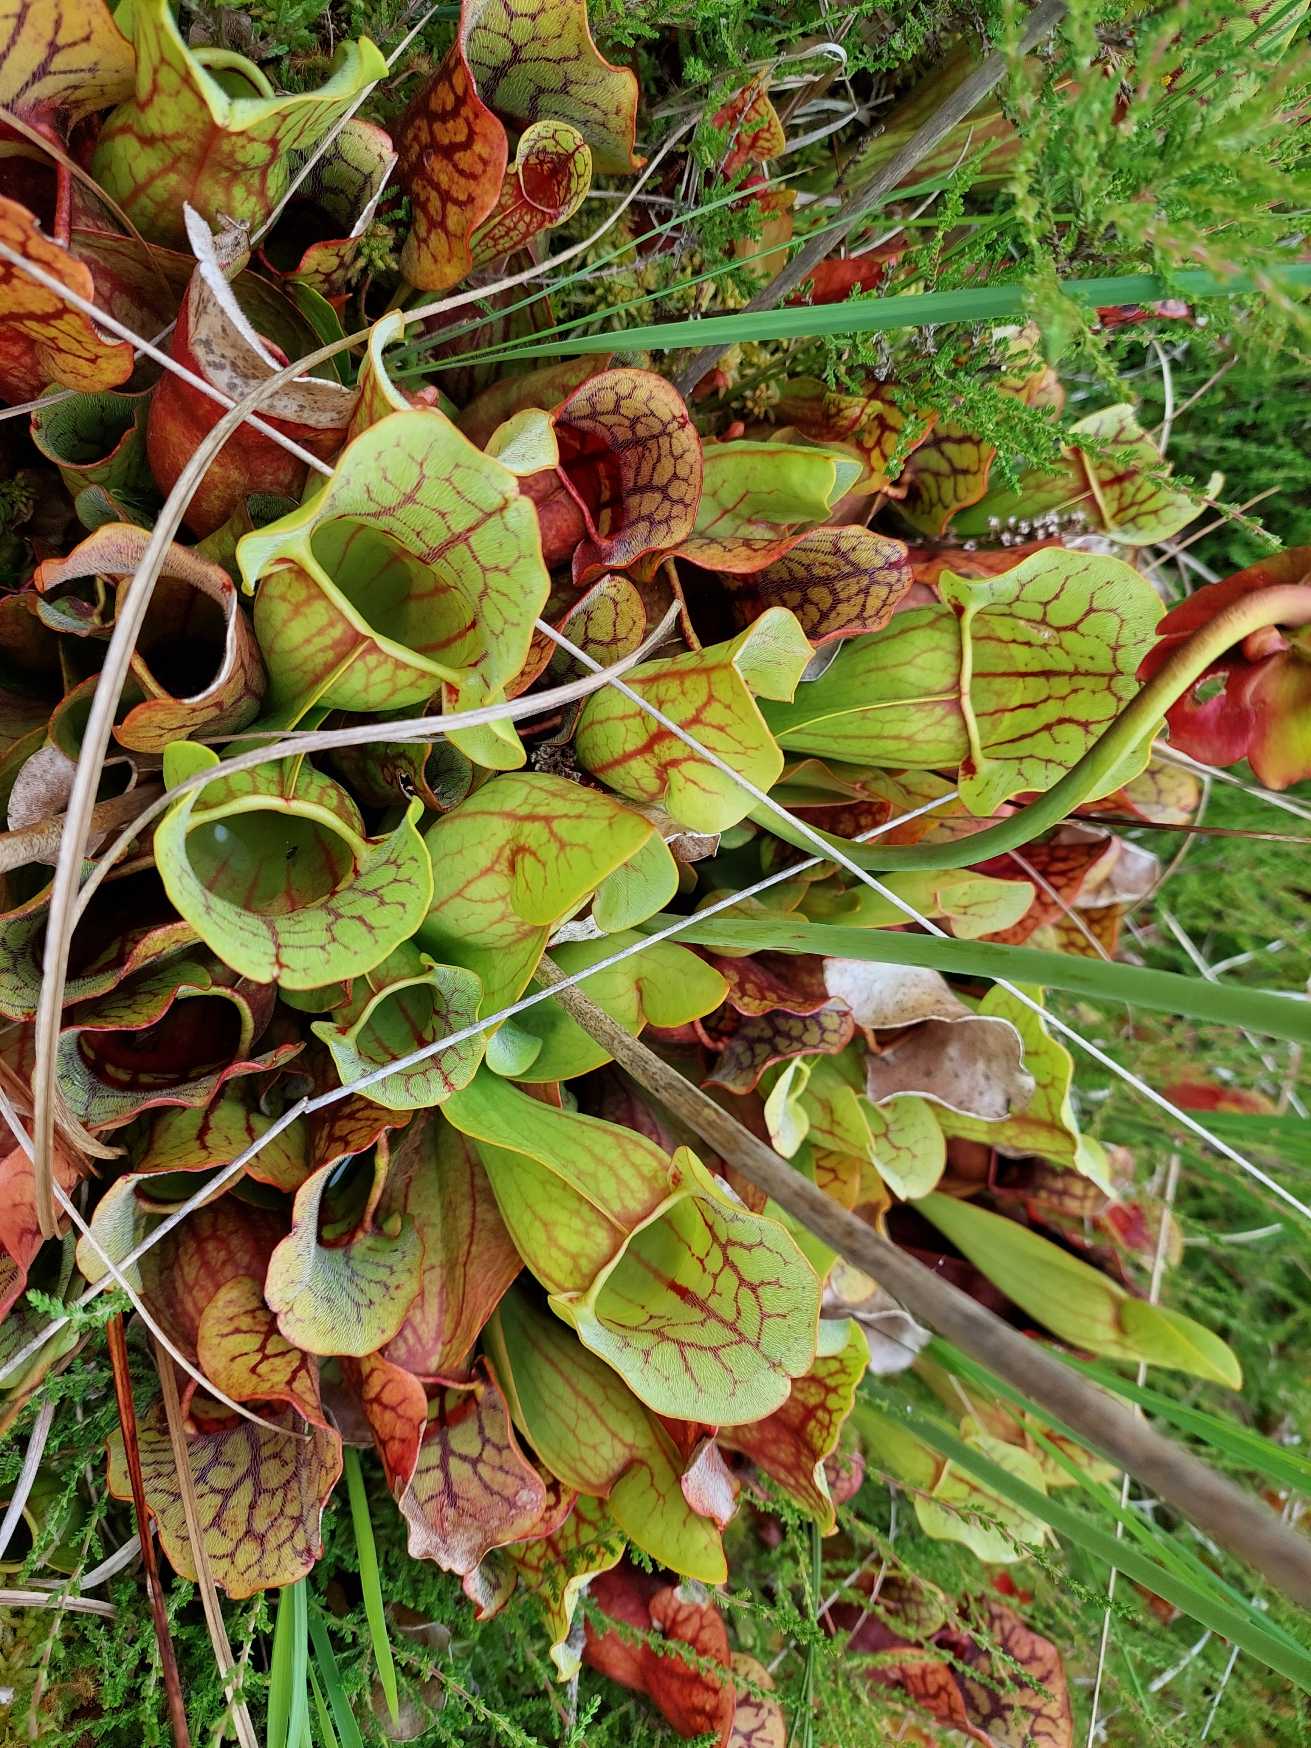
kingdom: Plantae
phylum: Tracheophyta
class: Magnoliopsida
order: Ericales
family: Sarraceniaceae
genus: Sarracenia
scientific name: Sarracenia purpurea
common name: Trompetblad
